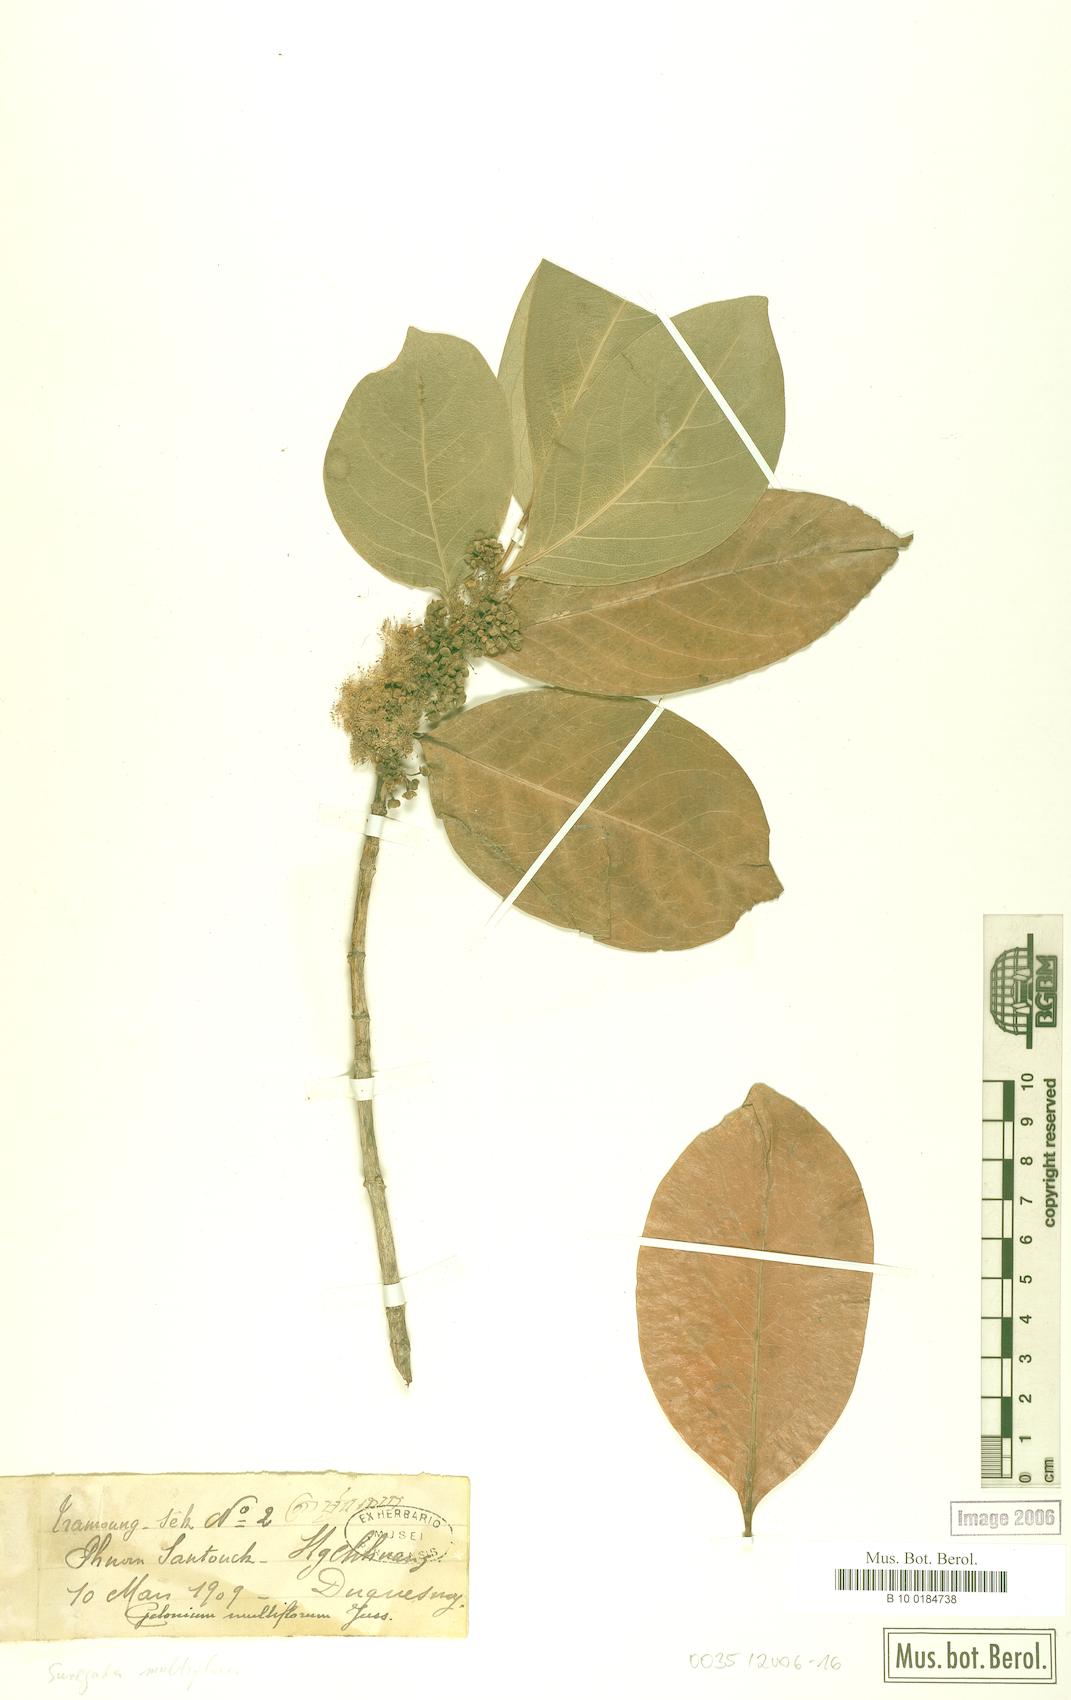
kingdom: Plantae
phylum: Tracheophyta
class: Magnoliopsida
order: Malpighiales
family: Euphorbiaceae
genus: Suregada
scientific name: Suregada multiflora
